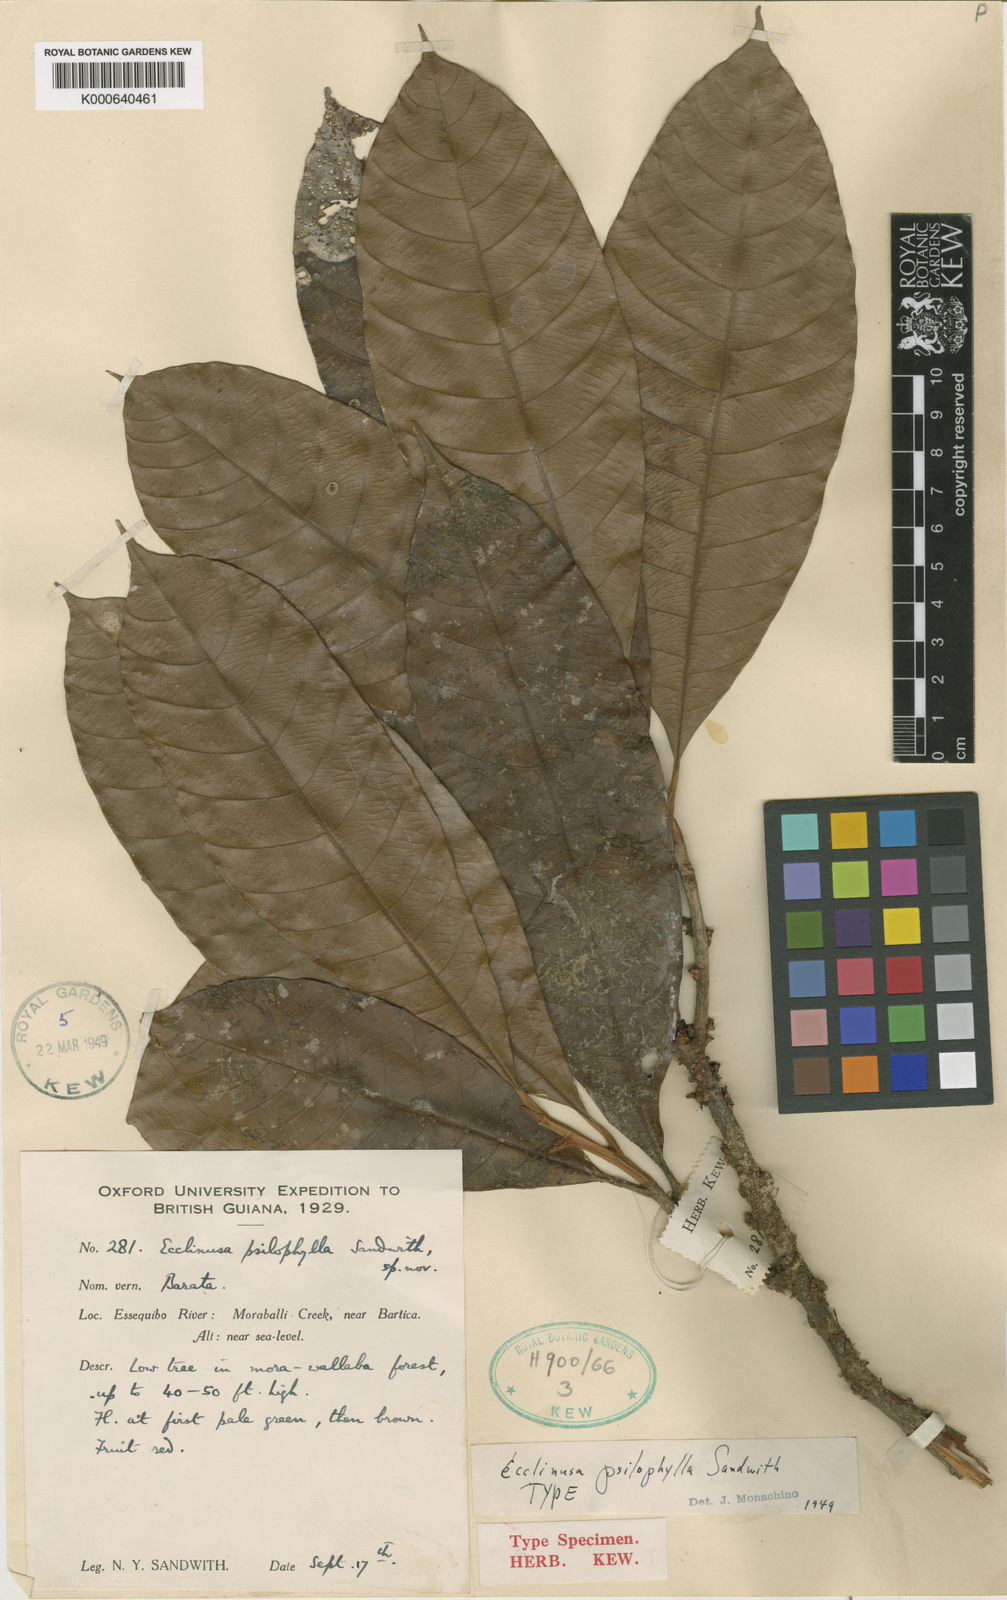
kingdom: Plantae
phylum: Tracheophyta
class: Magnoliopsida
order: Ericales
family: Sapotaceae
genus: Ecclinusa
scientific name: Ecclinusa psilophylla
